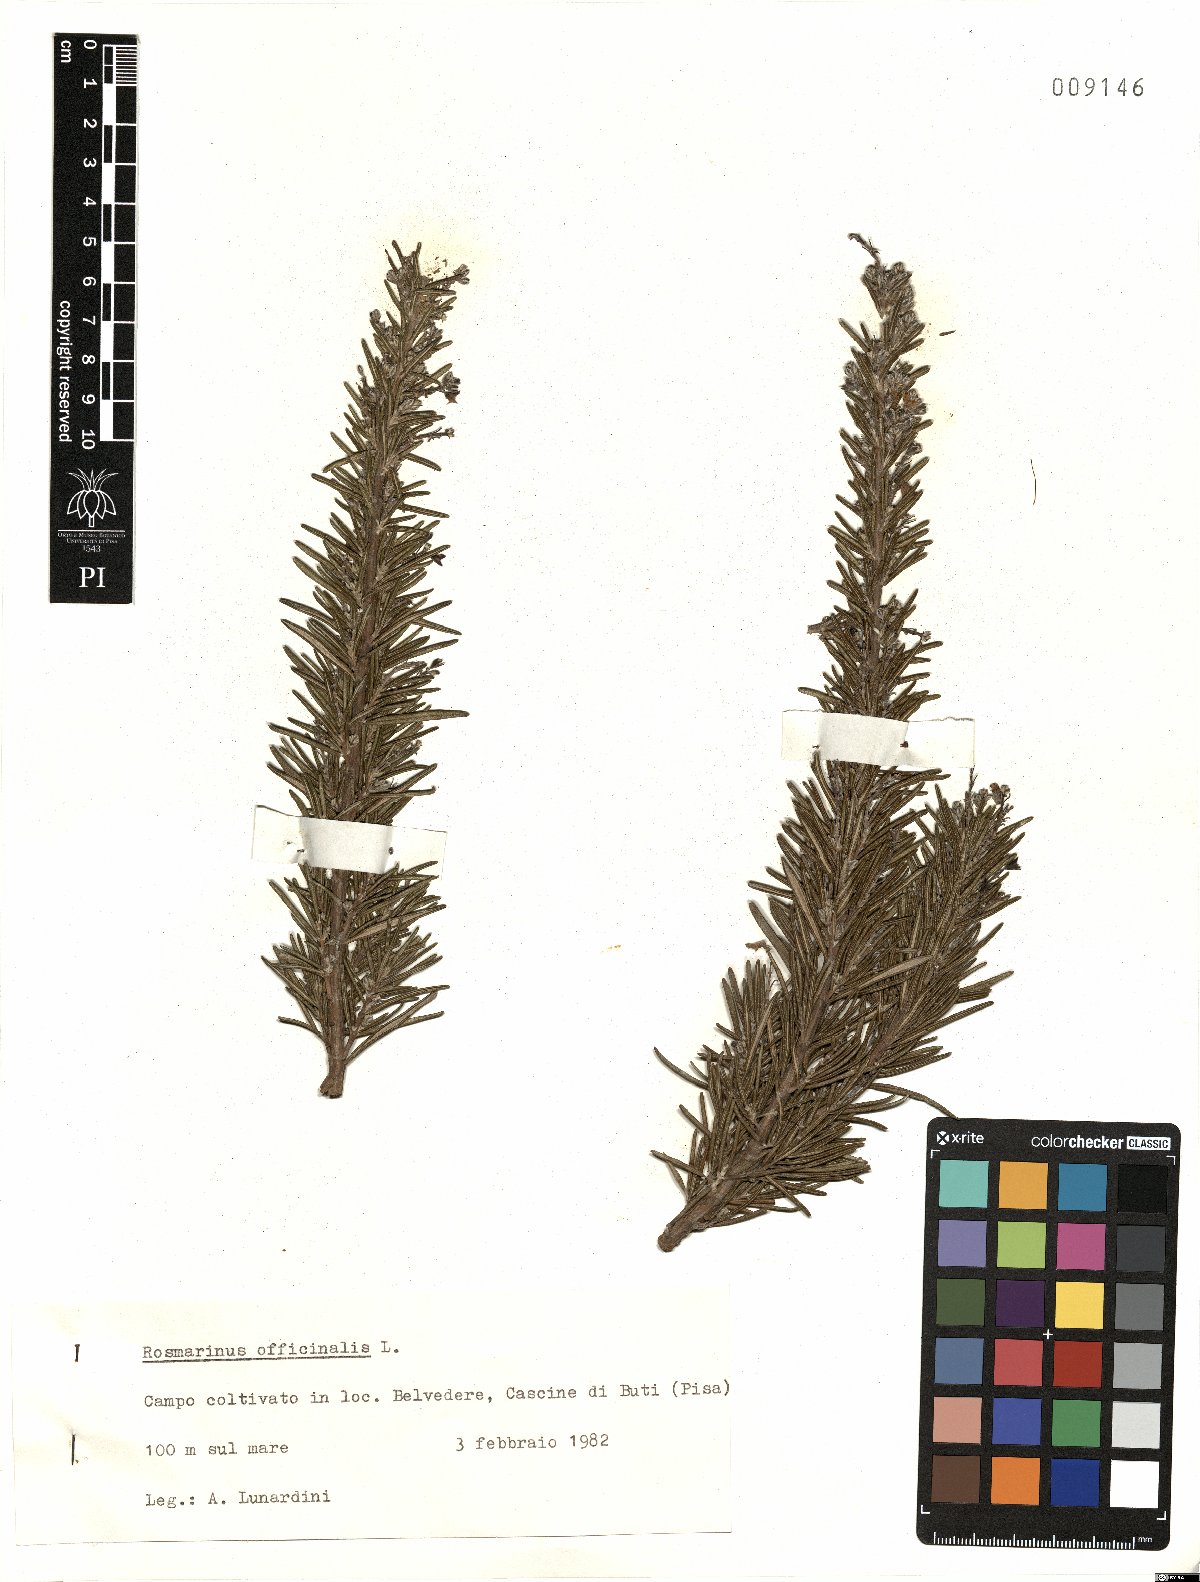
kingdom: Plantae
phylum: Tracheophyta
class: Magnoliopsida
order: Lamiales
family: Lamiaceae
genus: Salvia
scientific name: Salvia rosmarinus
